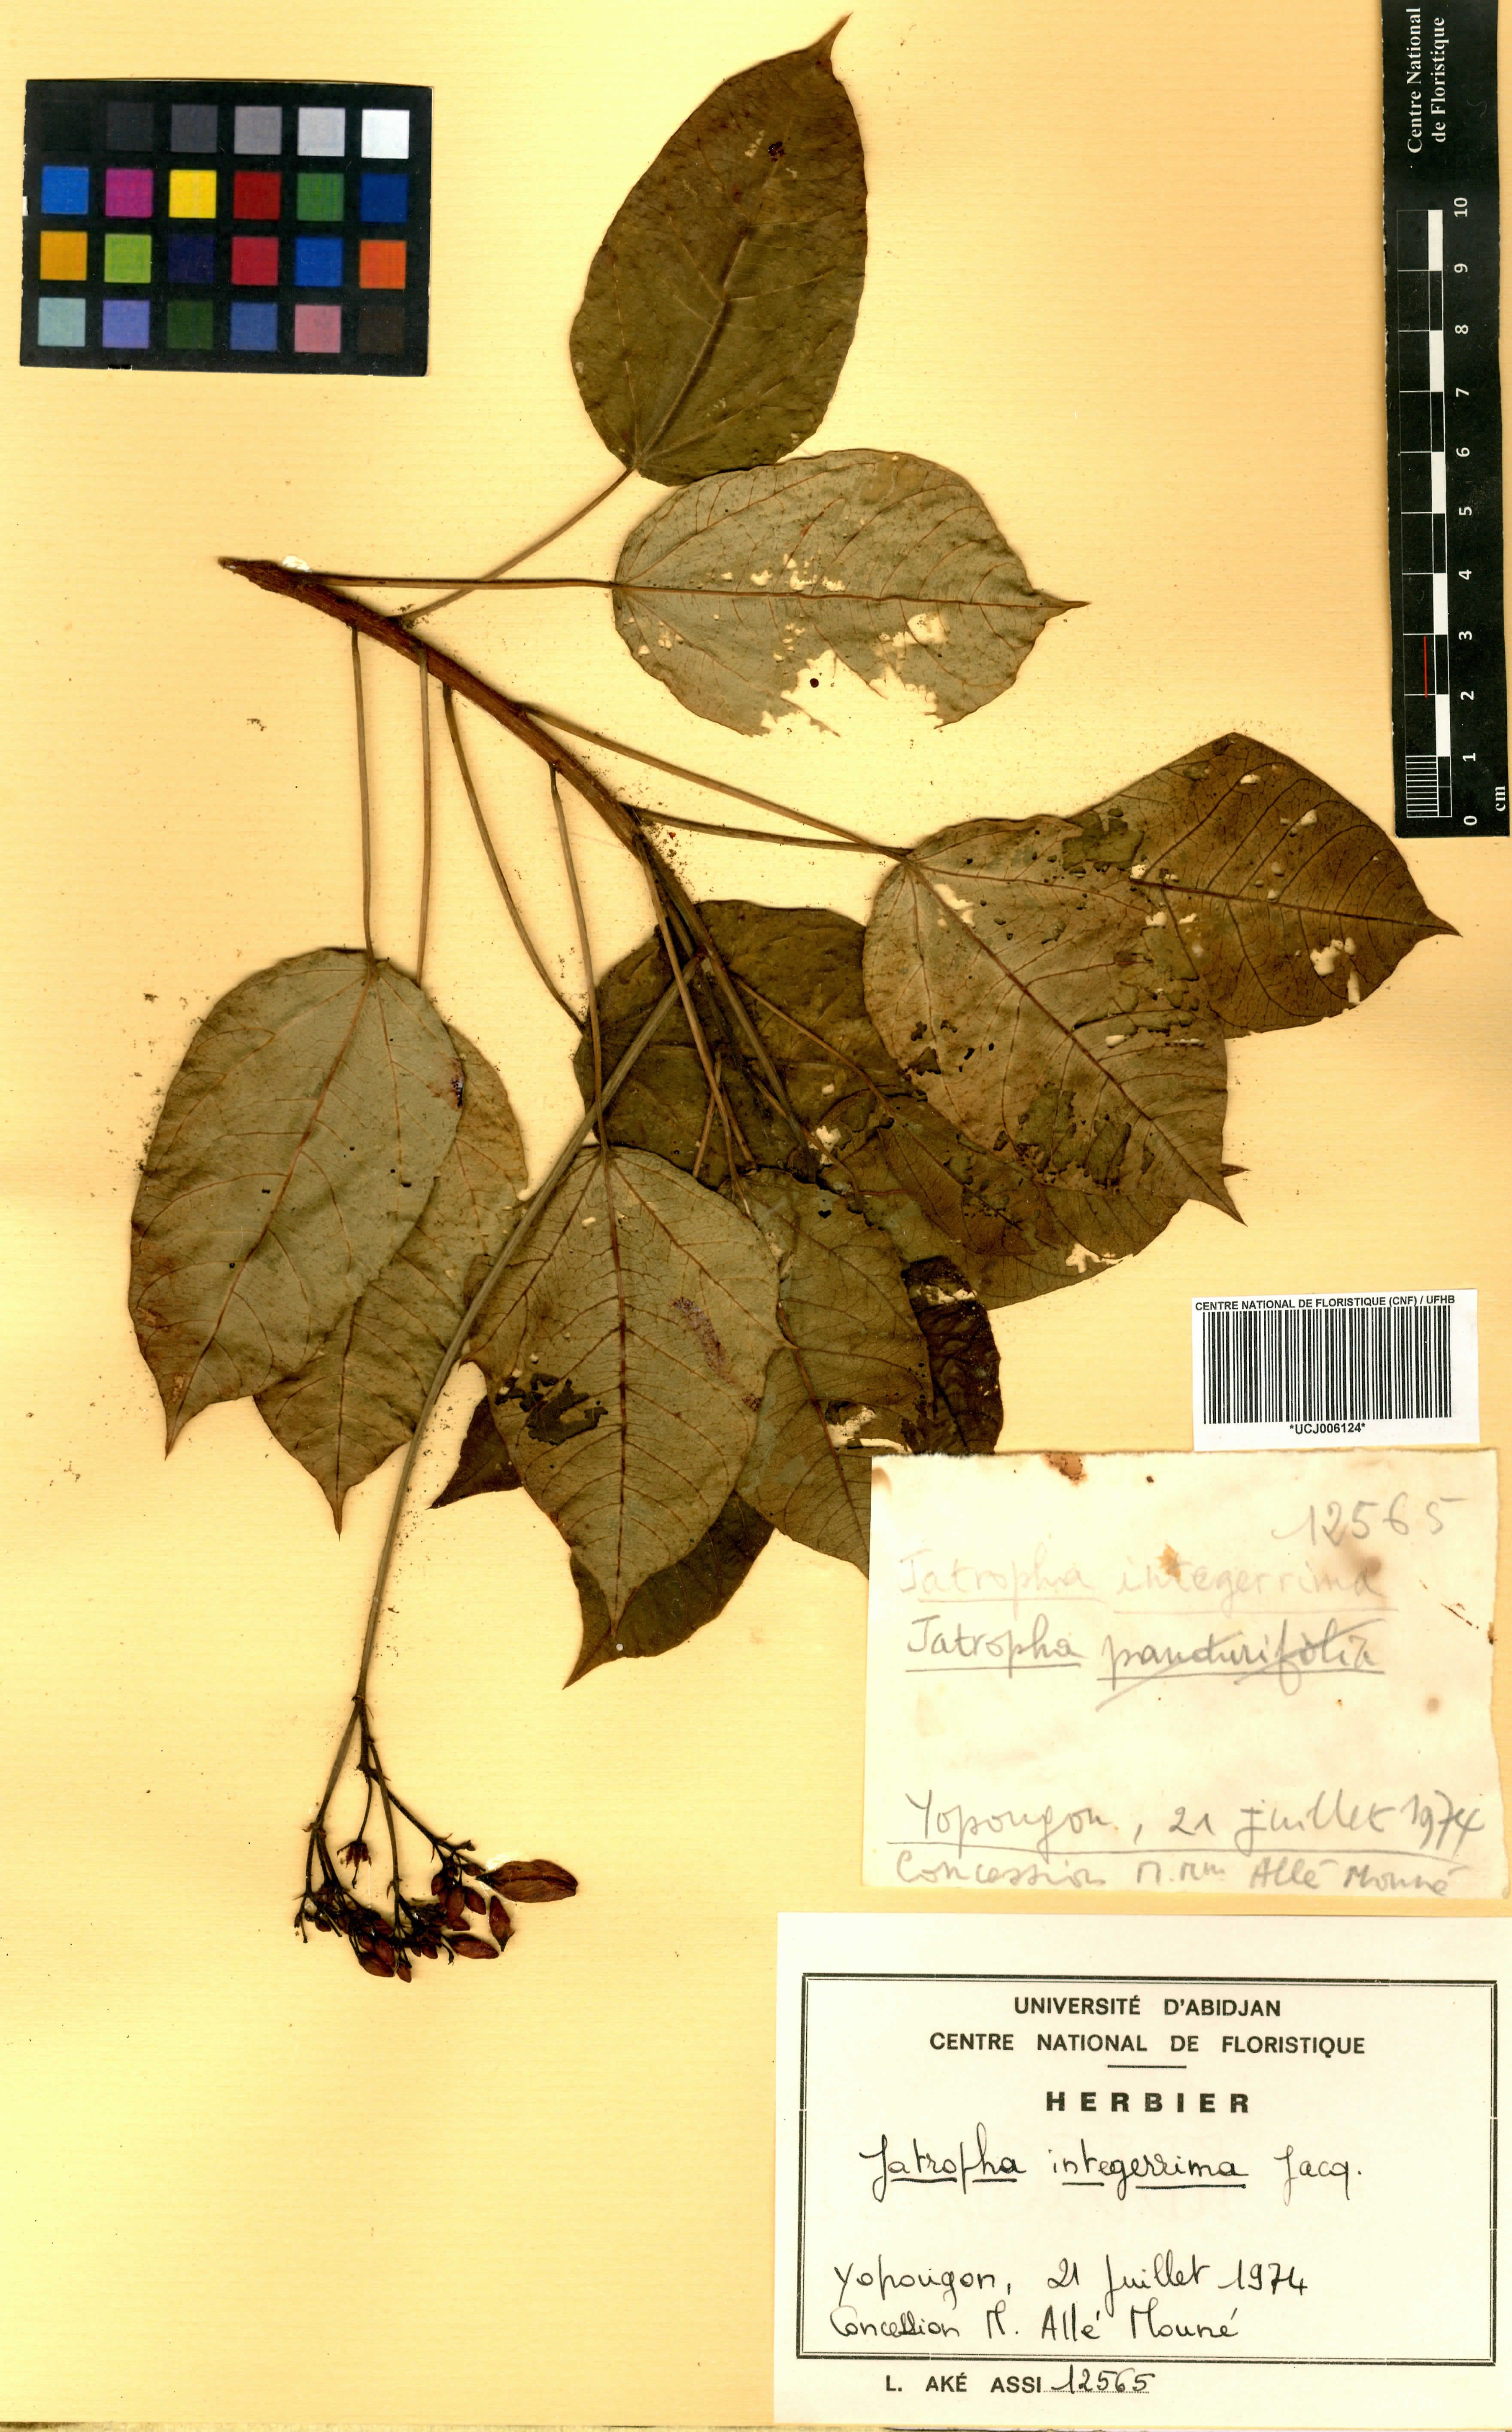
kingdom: Plantae
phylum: Tracheophyta
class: Magnoliopsida
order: Malpighiales
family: Euphorbiaceae
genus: Jatropha
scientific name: Jatropha integerrima
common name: Peregrina
